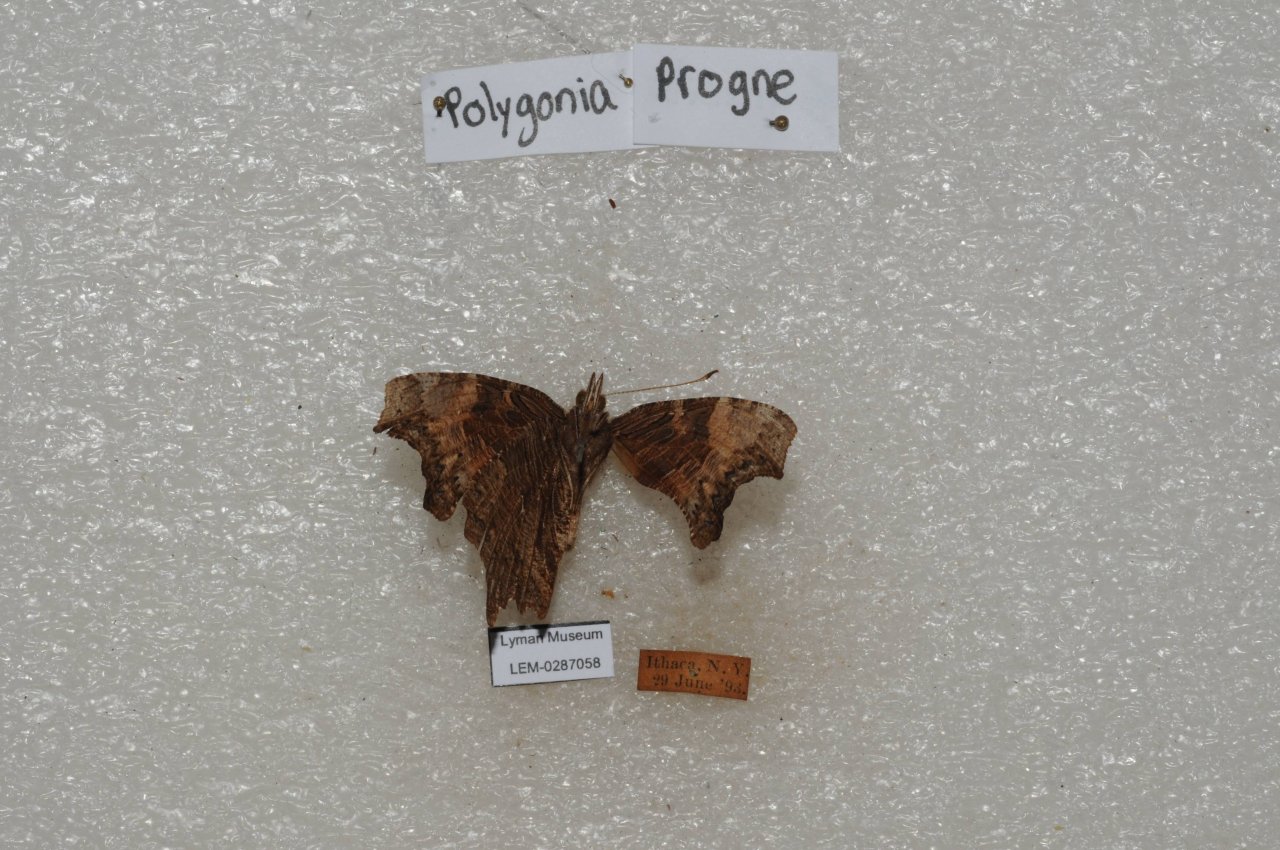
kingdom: Animalia
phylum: Arthropoda
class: Insecta
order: Lepidoptera
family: Nymphalidae
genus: Polygonia
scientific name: Polygonia progne
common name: Gray Comma
